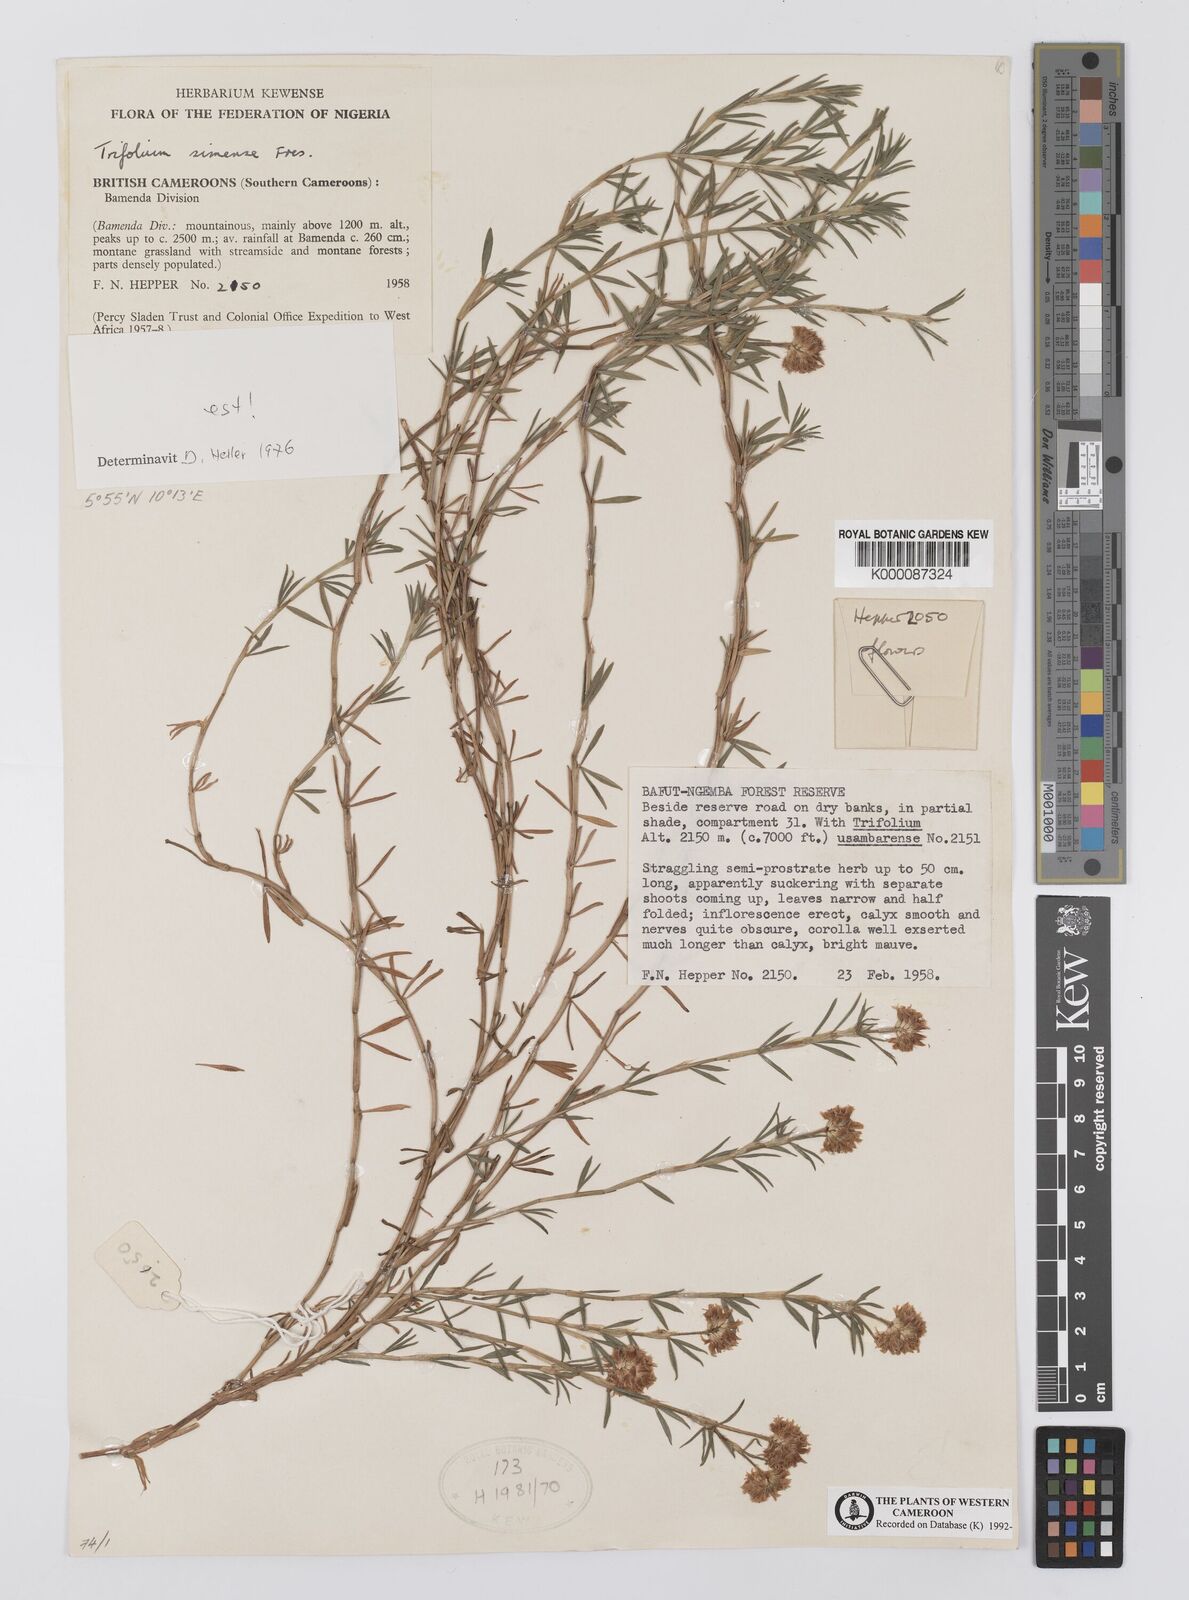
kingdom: Plantae
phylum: Tracheophyta
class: Magnoliopsida
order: Fabales
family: Fabaceae
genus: Trifolium
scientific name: Trifolium simense
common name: Simen clover
